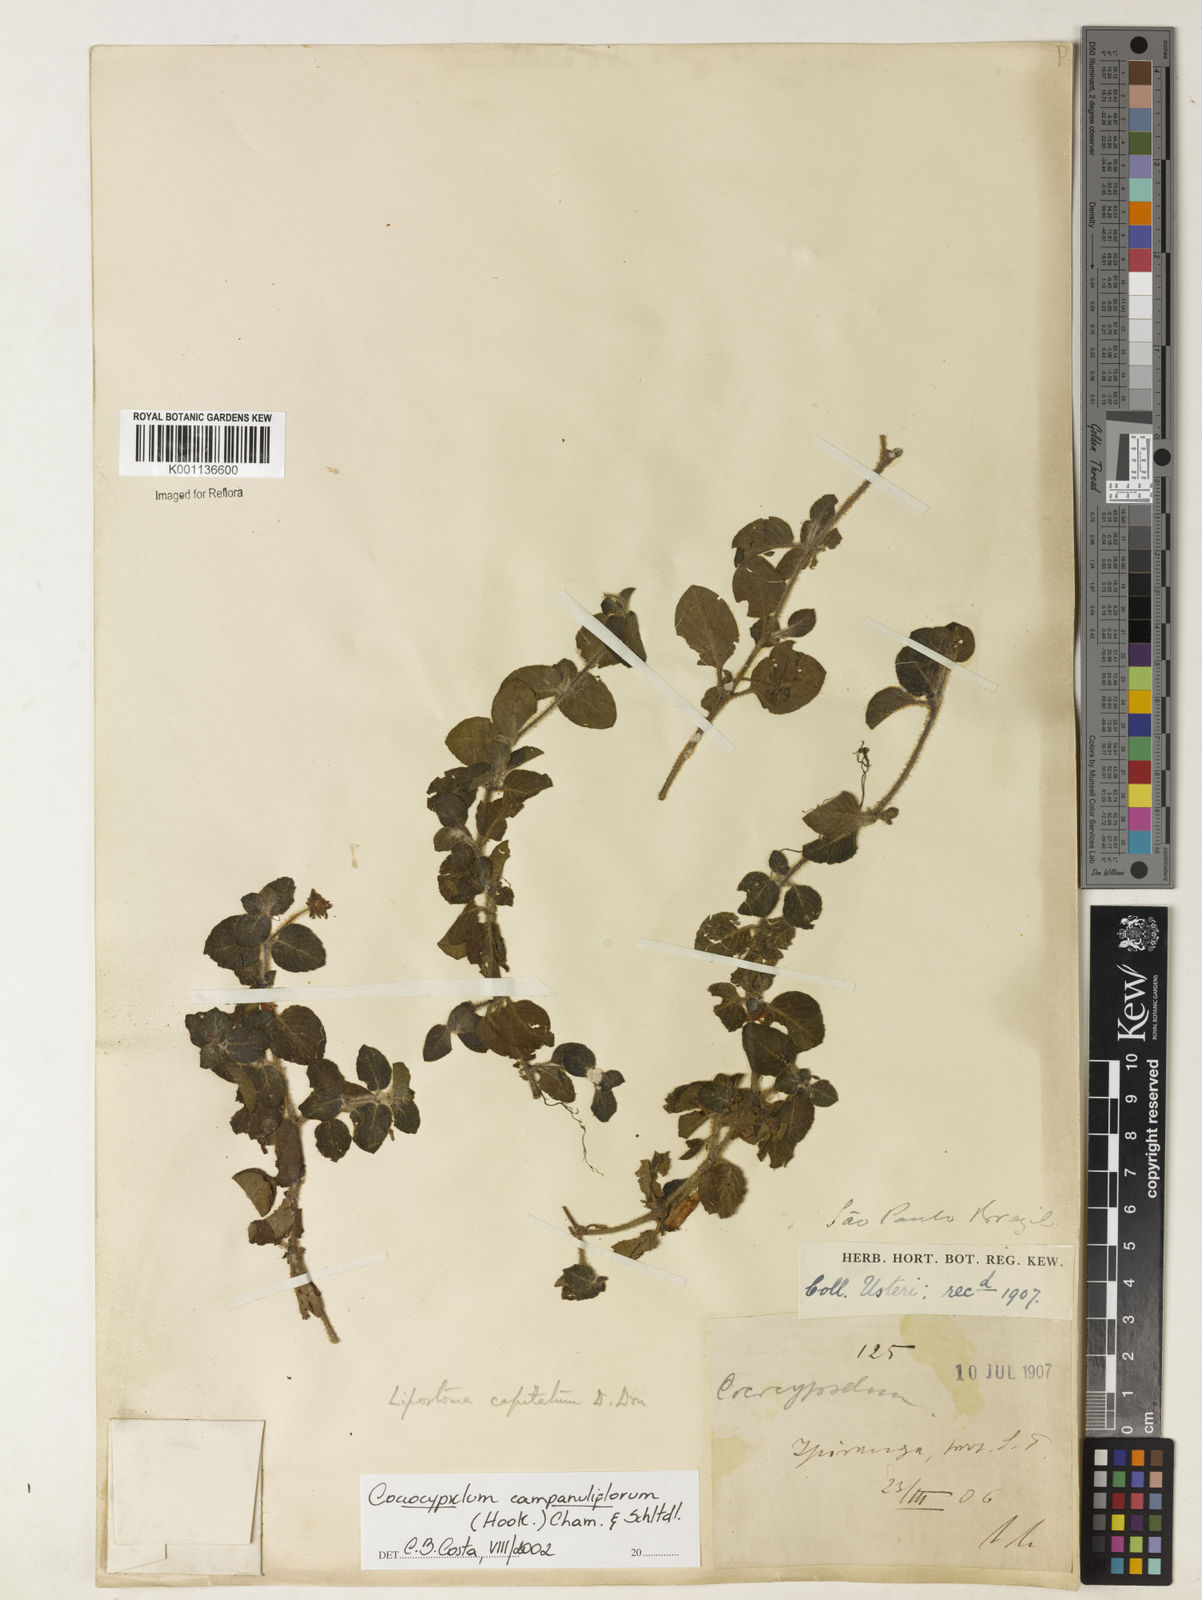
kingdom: Plantae
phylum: Tracheophyta
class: Magnoliopsida
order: Gentianales
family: Rubiaceae
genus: Coccocypselum
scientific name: Coccocypselum capitatum
